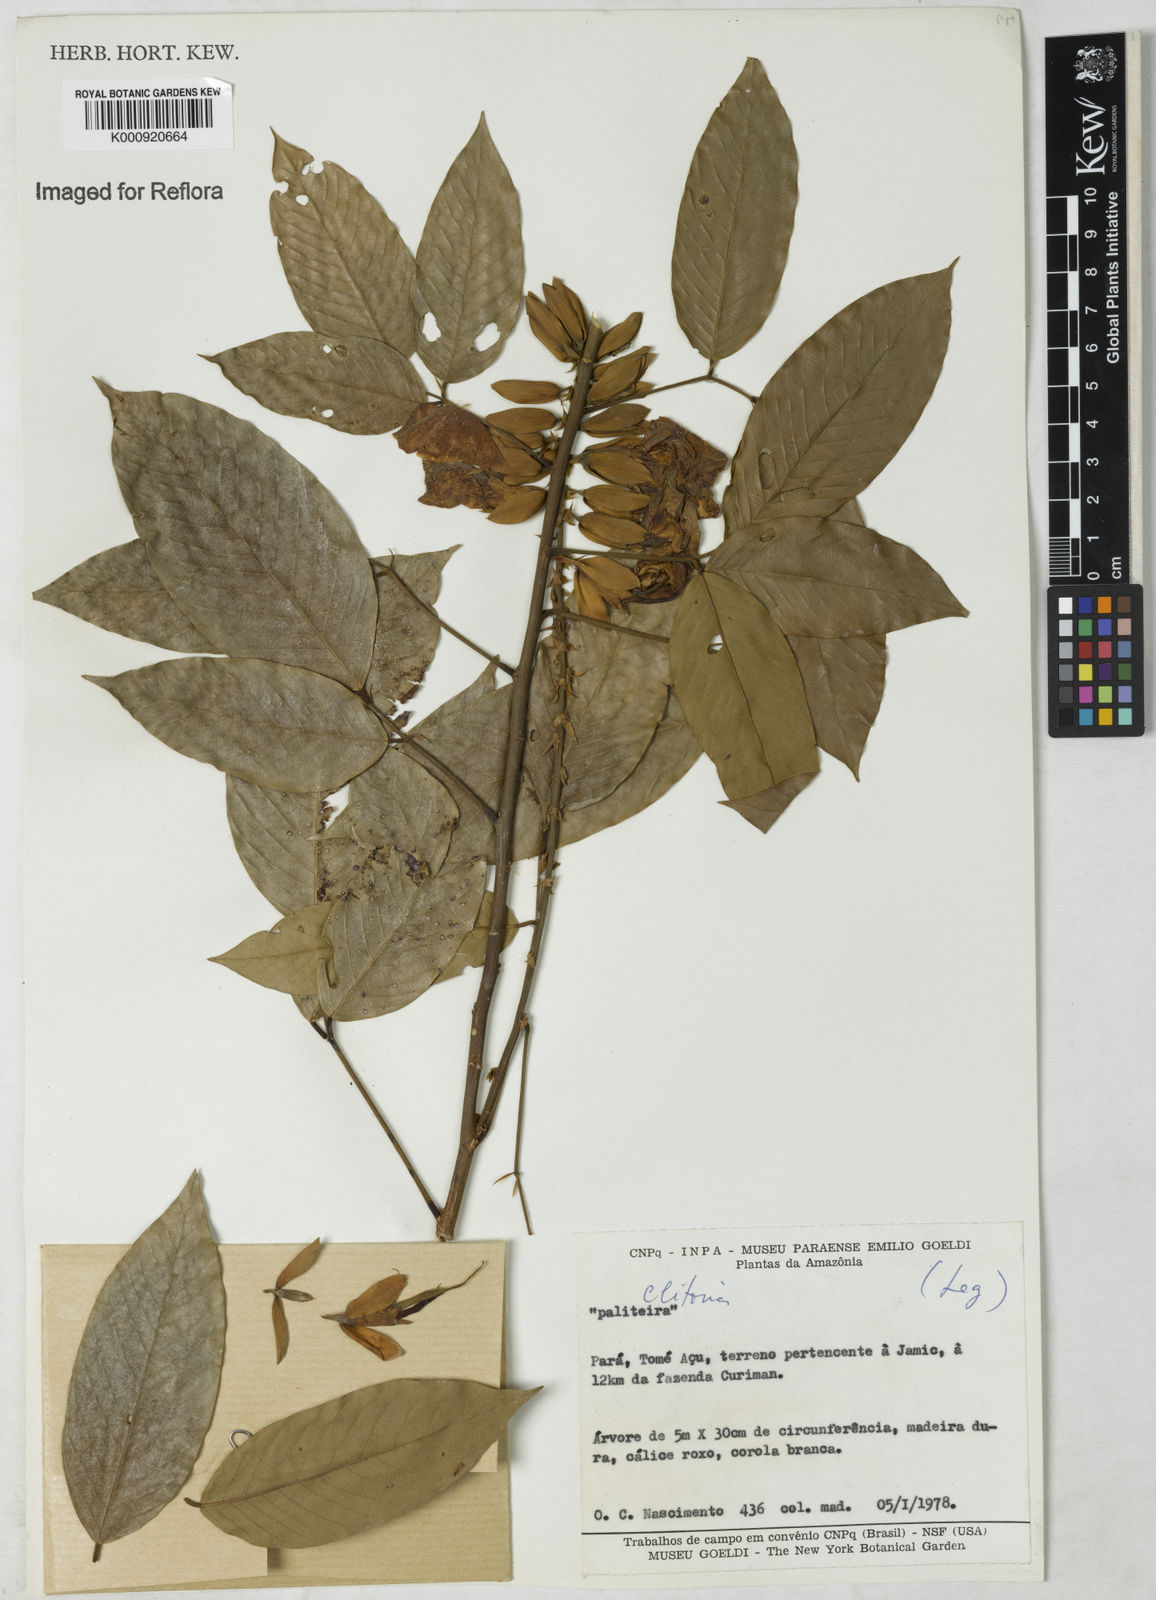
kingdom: Plantae
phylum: Tracheophyta
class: Magnoliopsida
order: Fabales
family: Fabaceae
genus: Clitoria
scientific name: Clitoria
